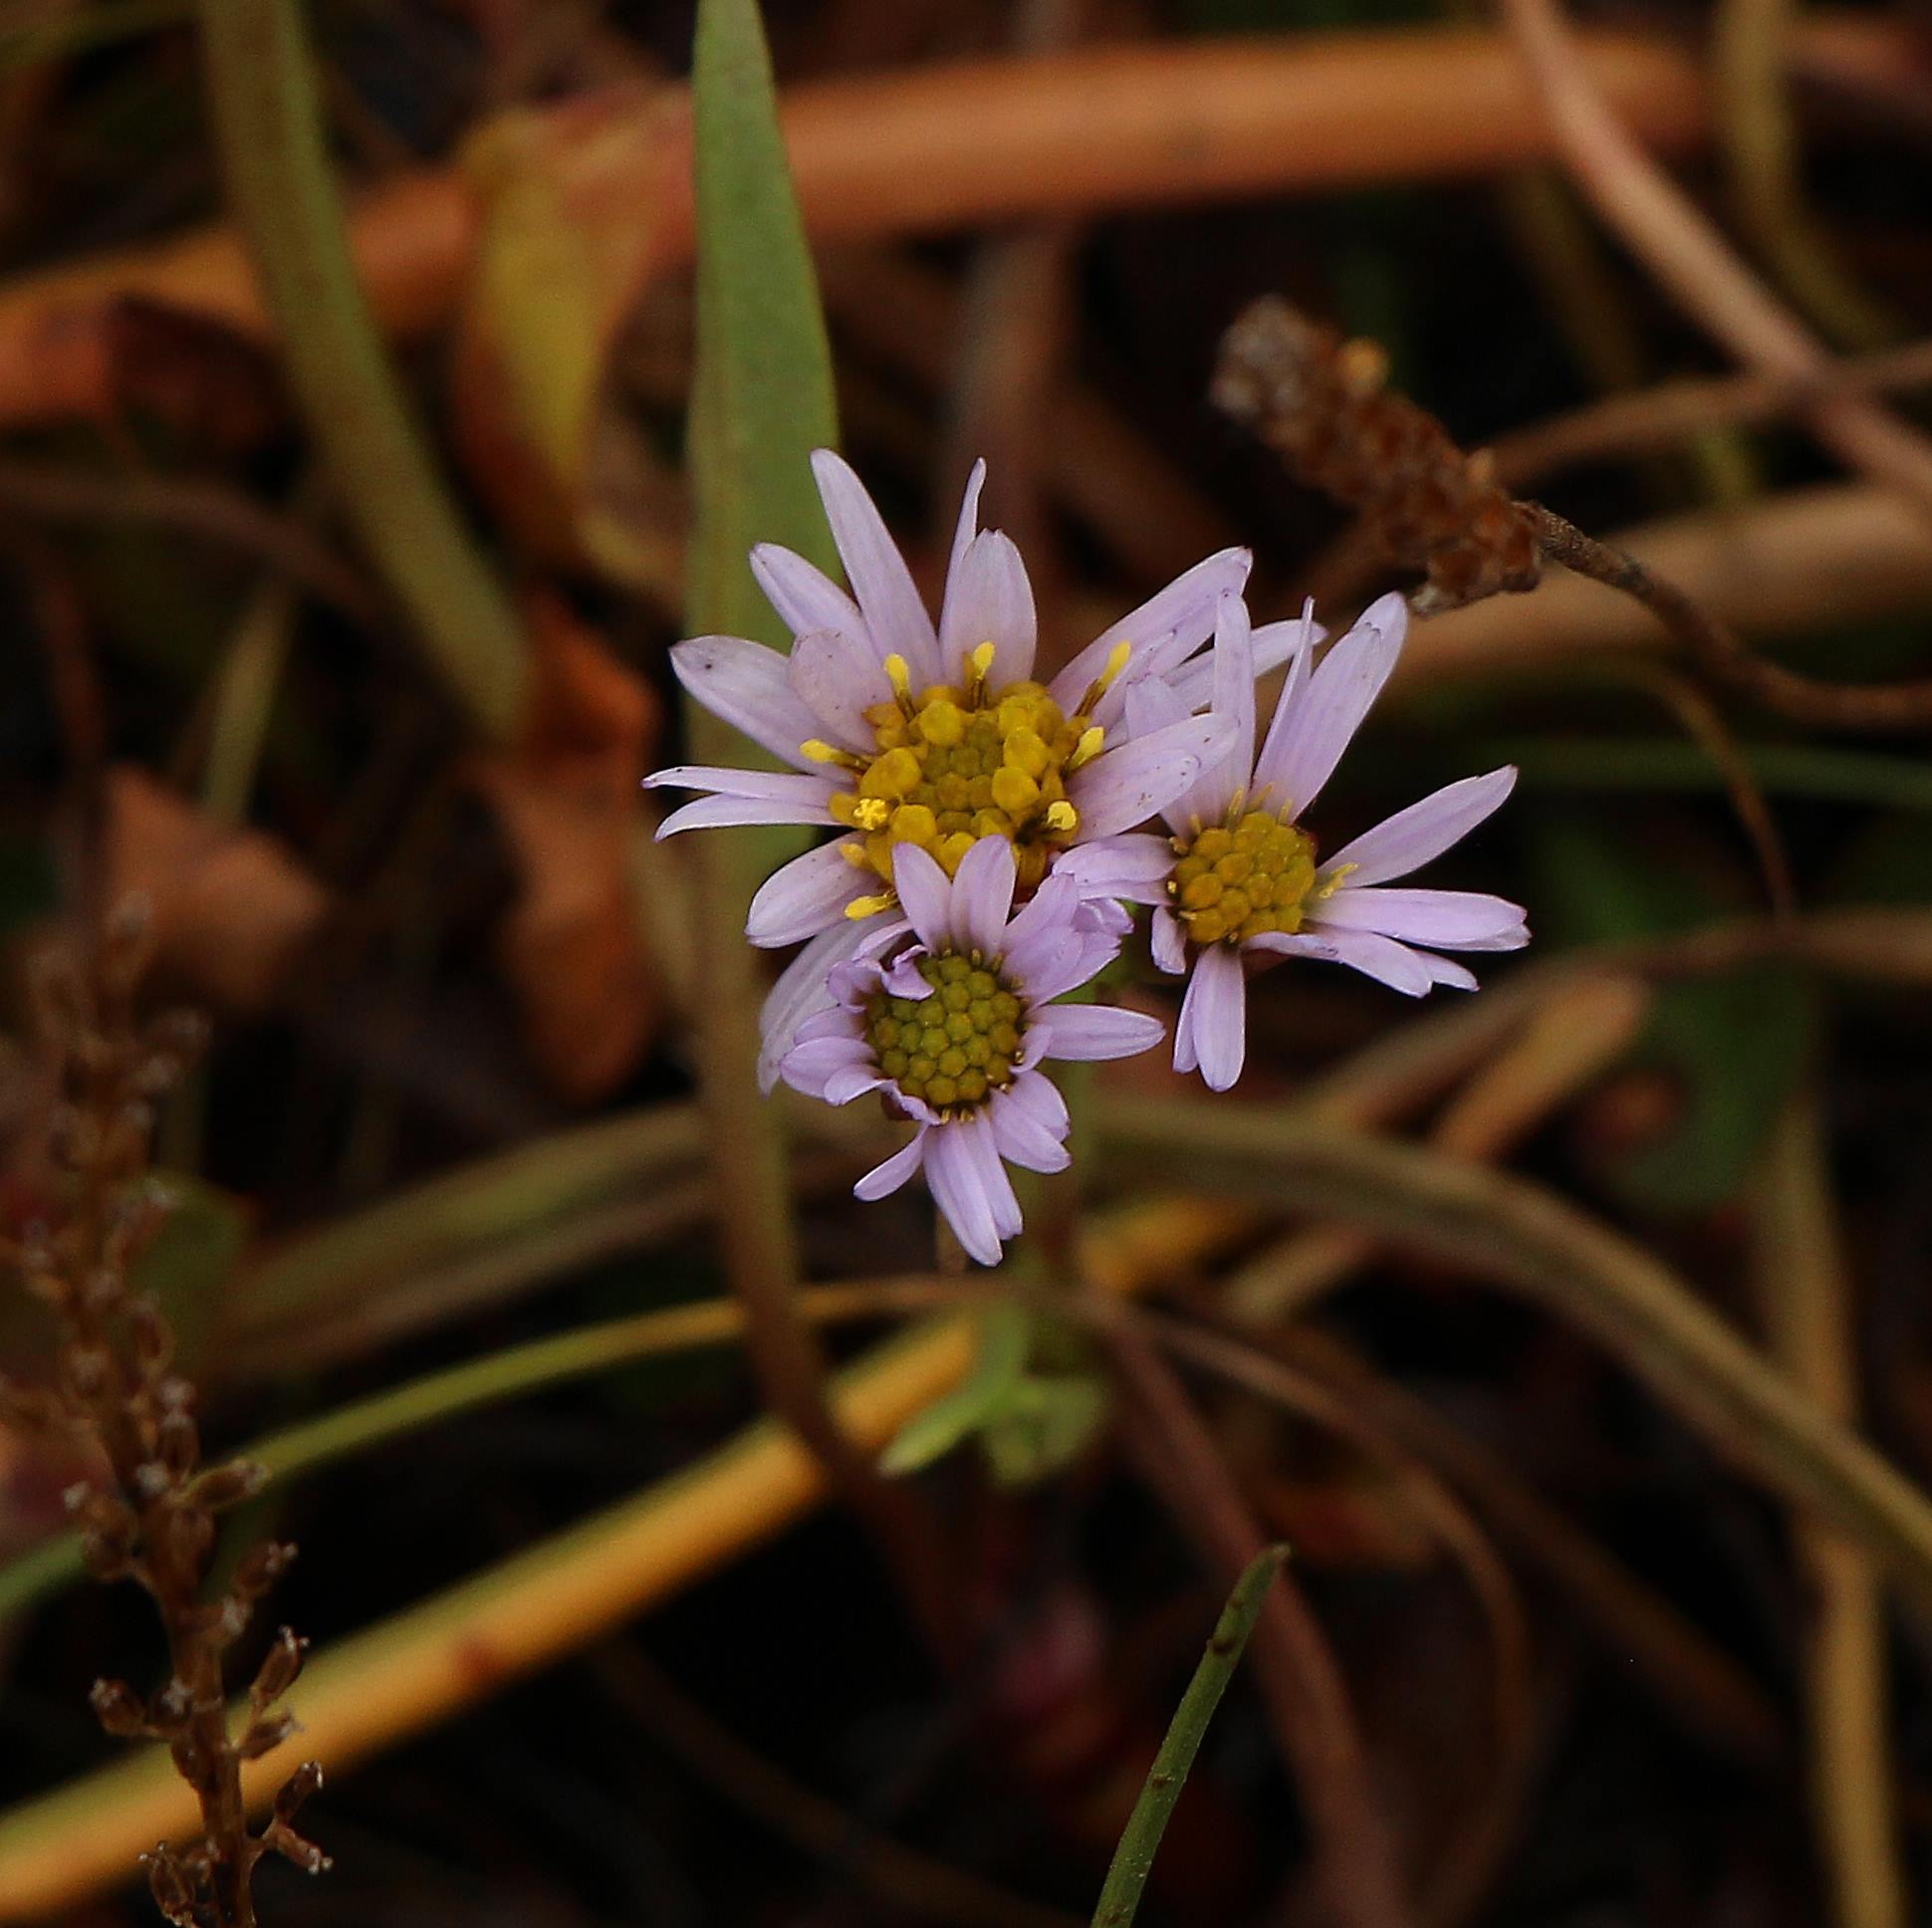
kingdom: Plantae
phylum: Tracheophyta
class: Magnoliopsida
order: Asterales
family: Asteraceae
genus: Tripolium
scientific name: Tripolium pannonicum
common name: Strandasters
